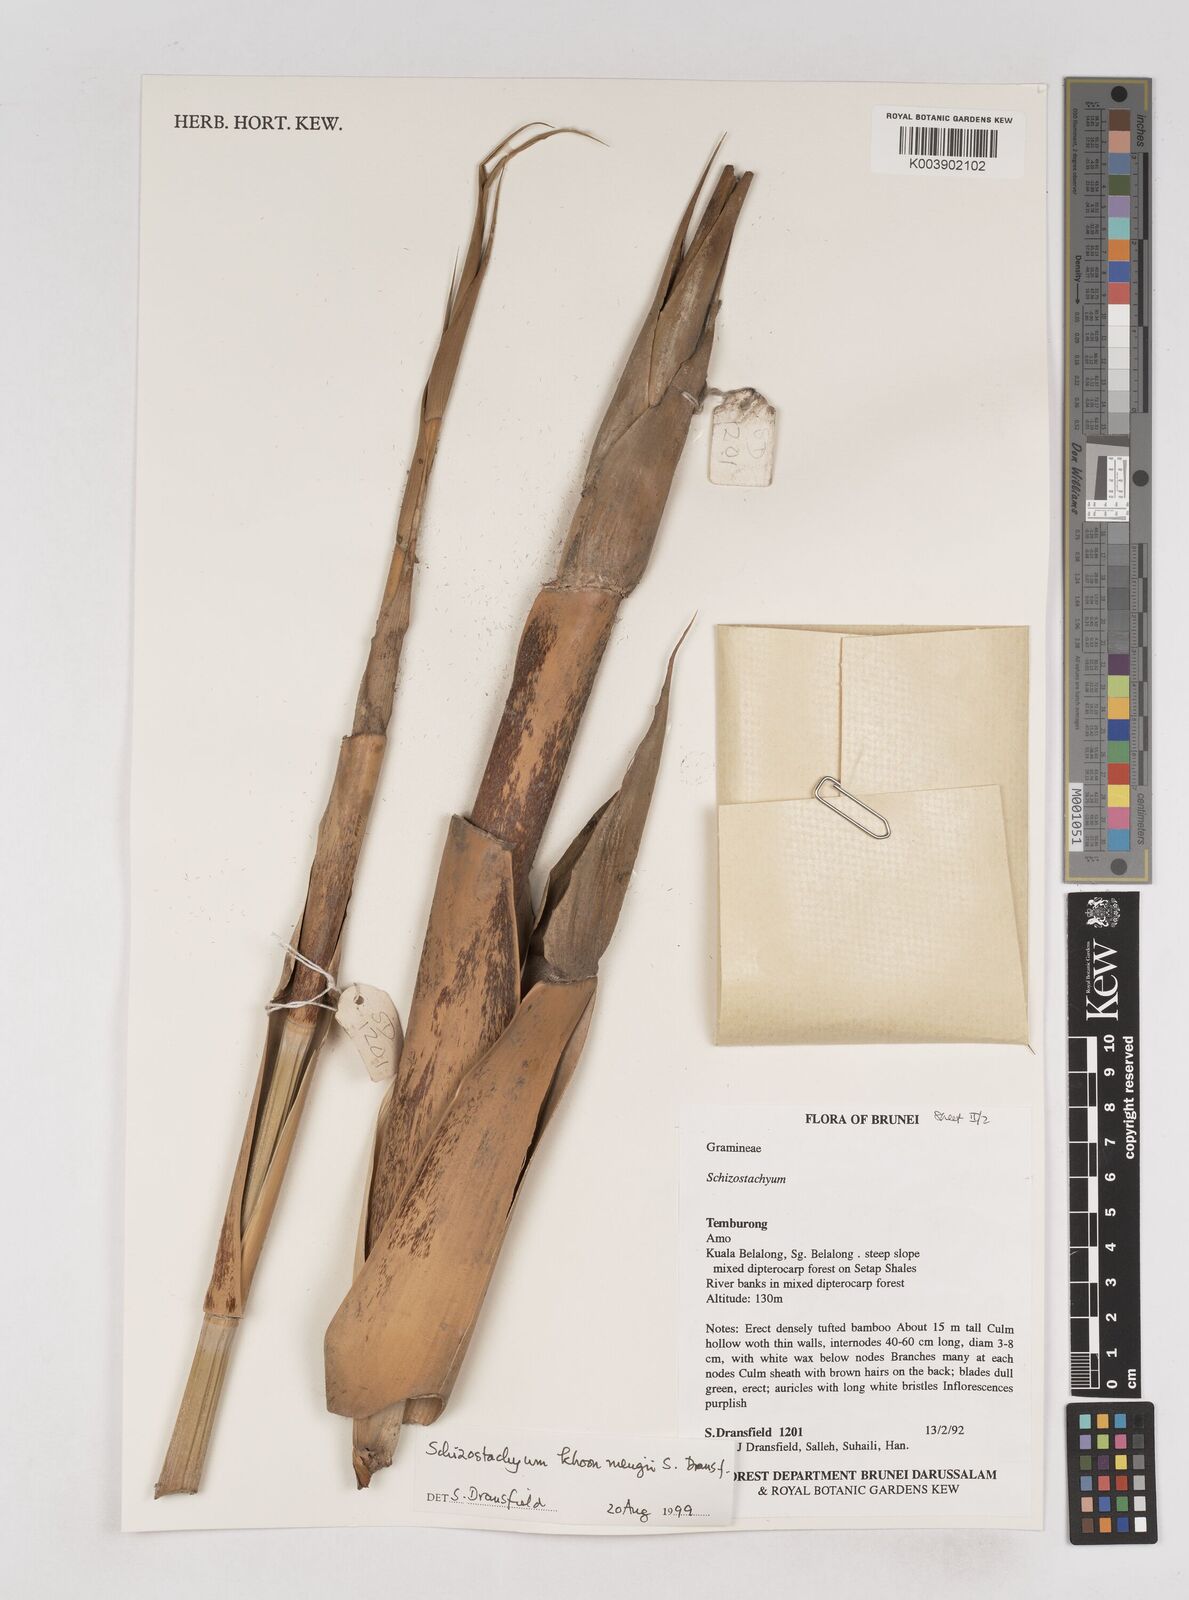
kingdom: Plantae
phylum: Tracheophyta
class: Liliopsida
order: Poales
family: Poaceae
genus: Schizostachyum
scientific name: Schizostachyum khoonmengii
